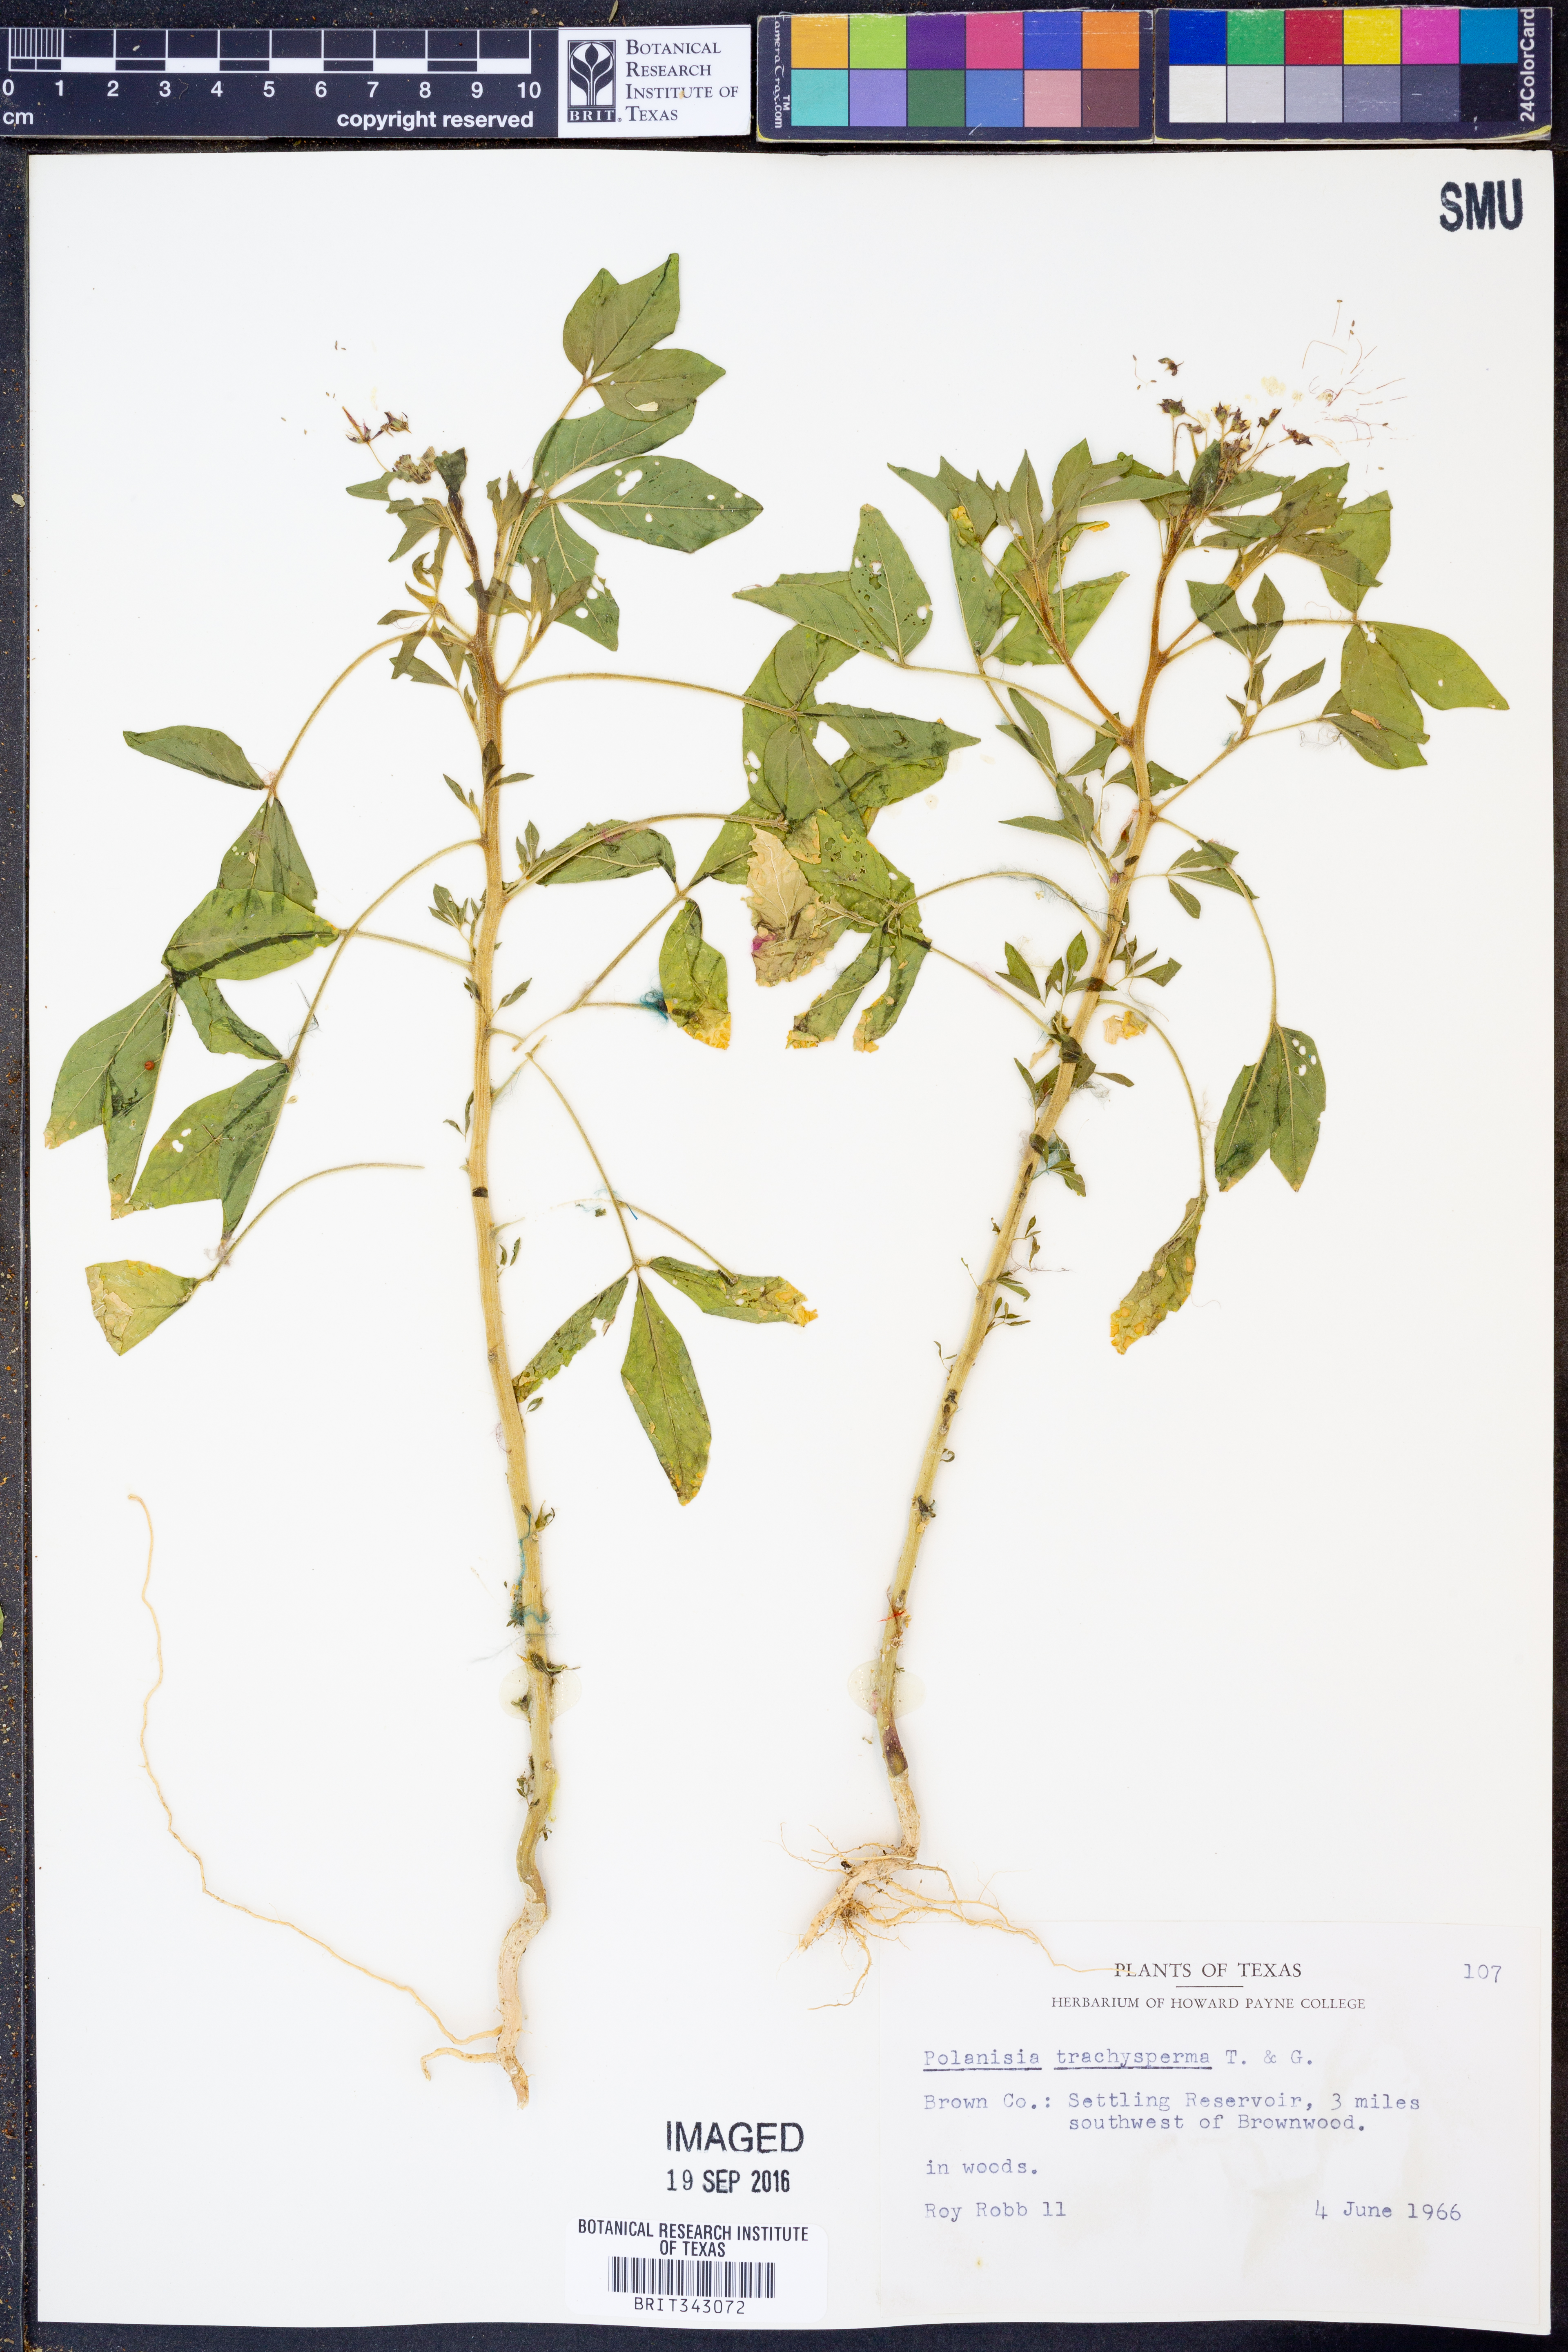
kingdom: Plantae
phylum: Tracheophyta
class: Magnoliopsida
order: Brassicales
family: Cleomaceae
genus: Polanisia
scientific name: Polanisia trachysperma
